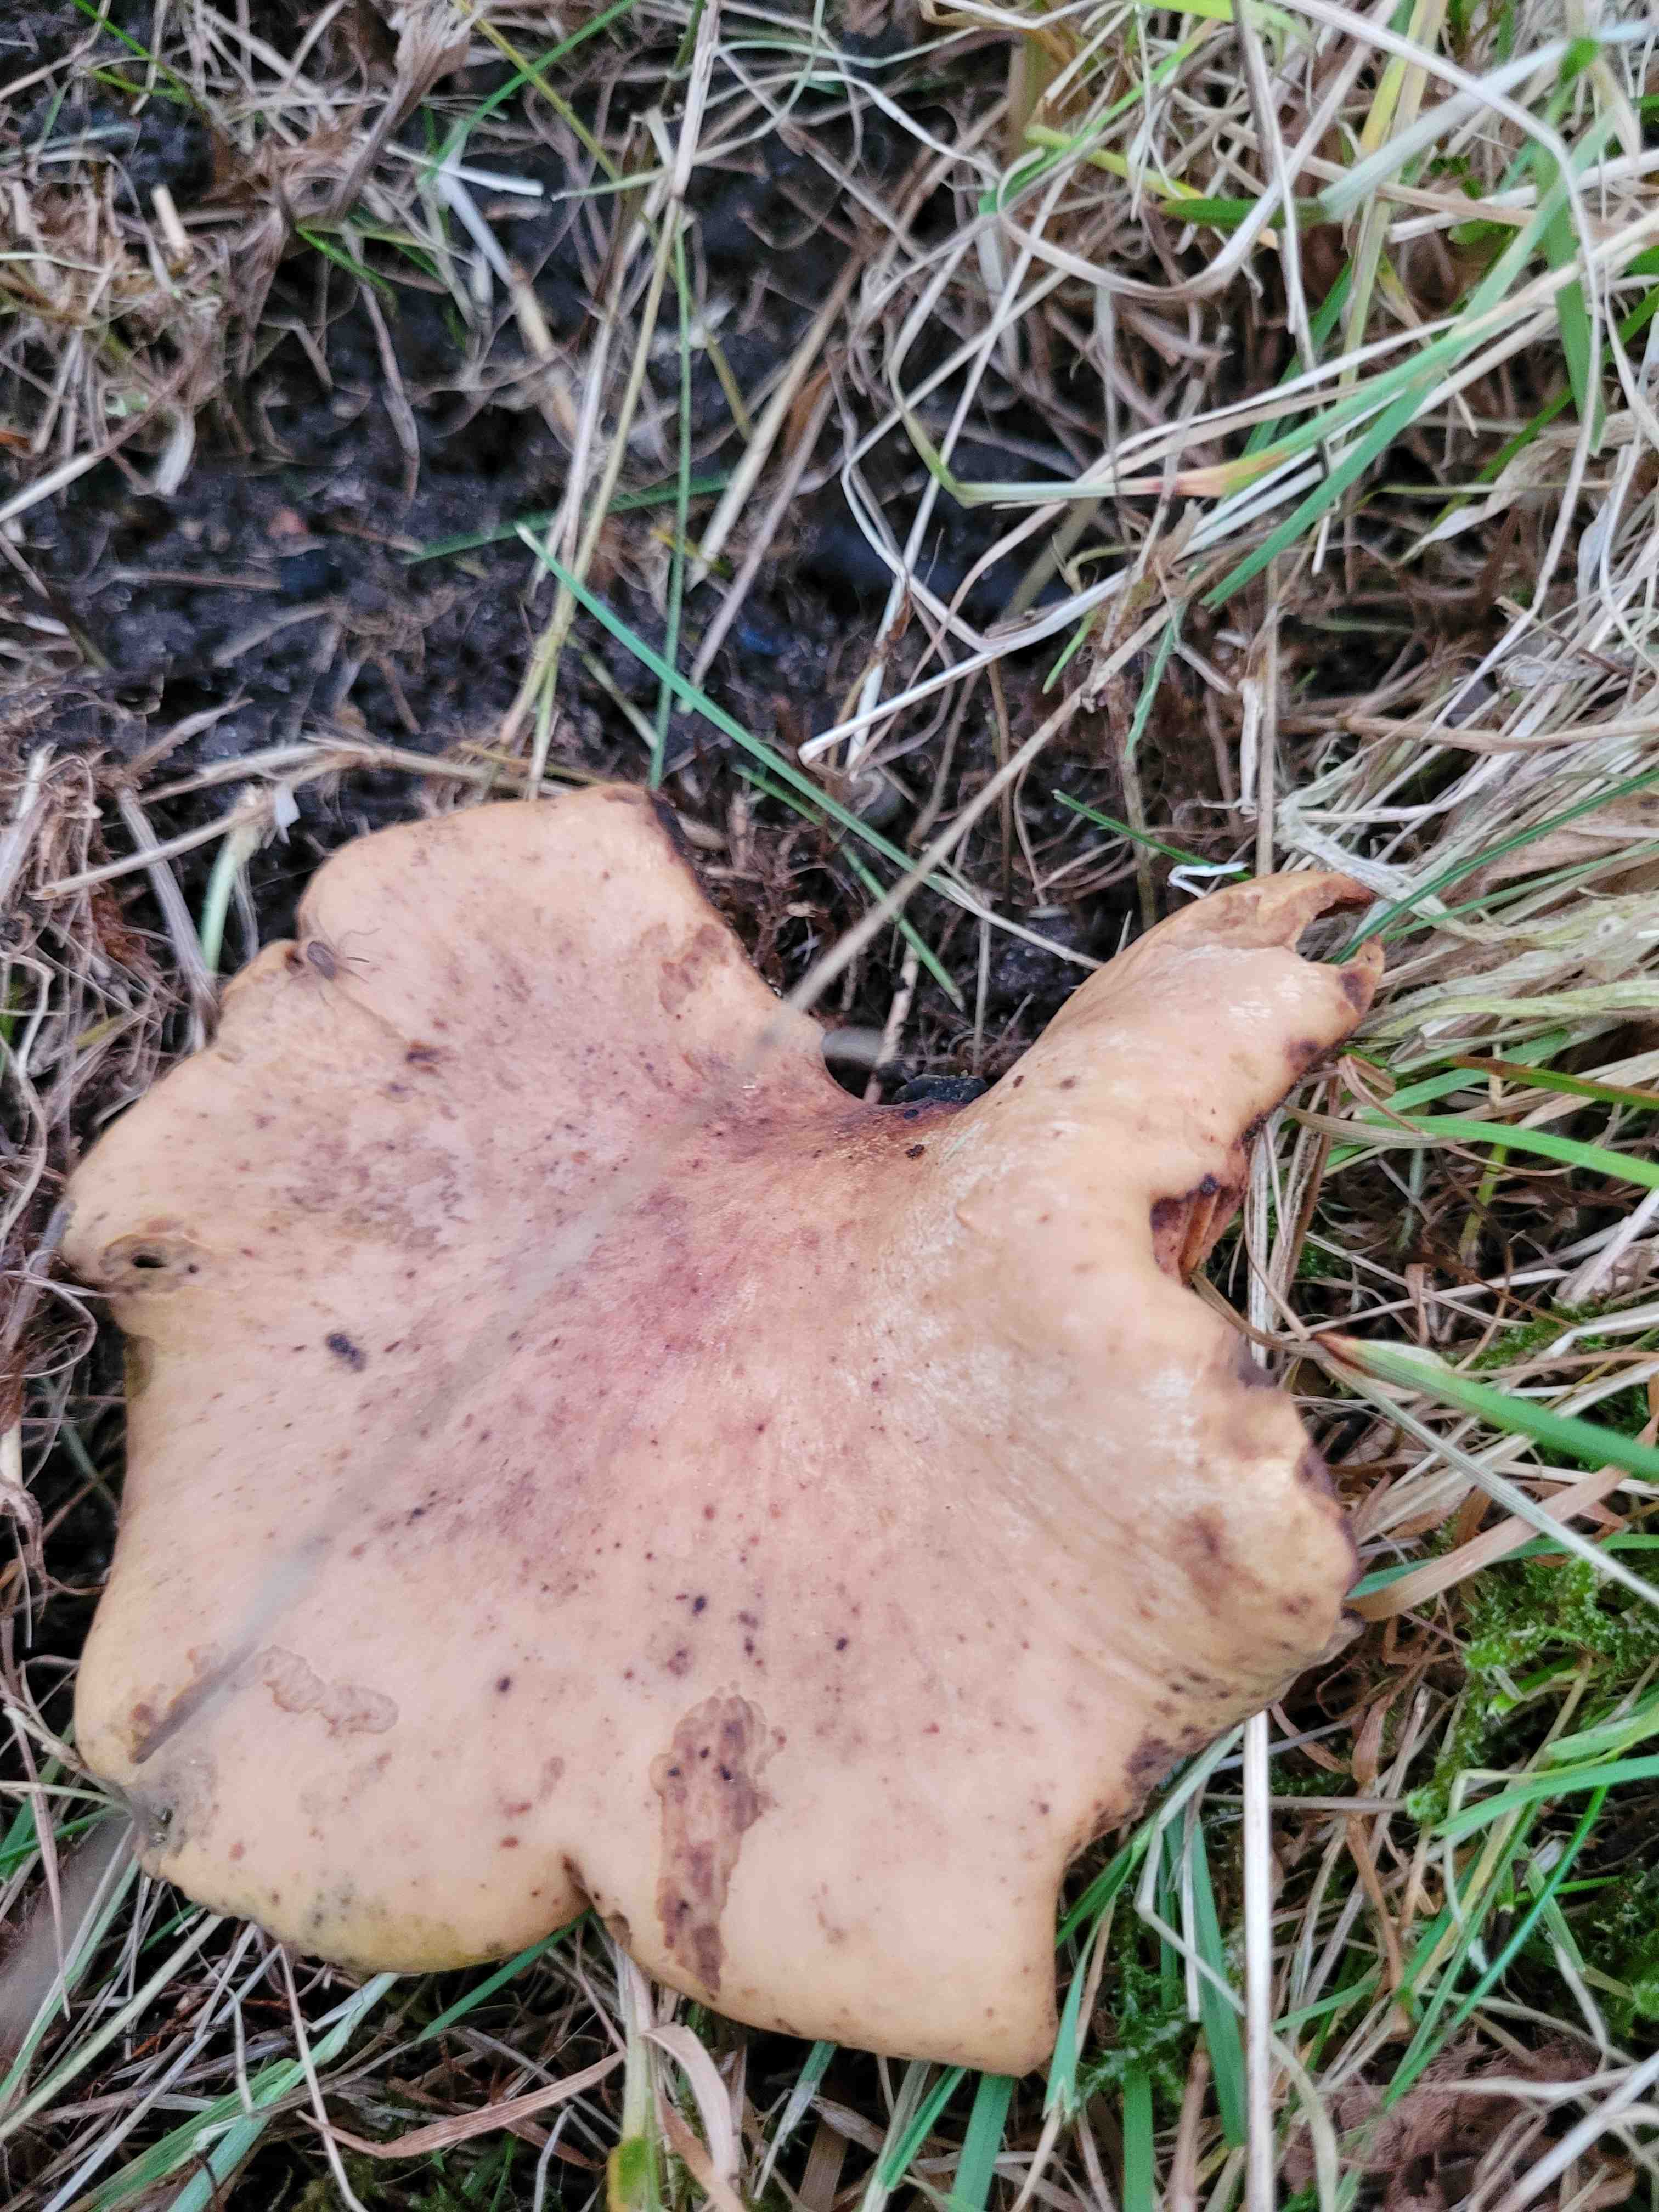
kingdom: Fungi
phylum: Basidiomycota
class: Agaricomycetes
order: Polyporales
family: Polyporaceae
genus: Cerioporus
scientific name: Cerioporus varius
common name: foranderlig stilkporesvamp
